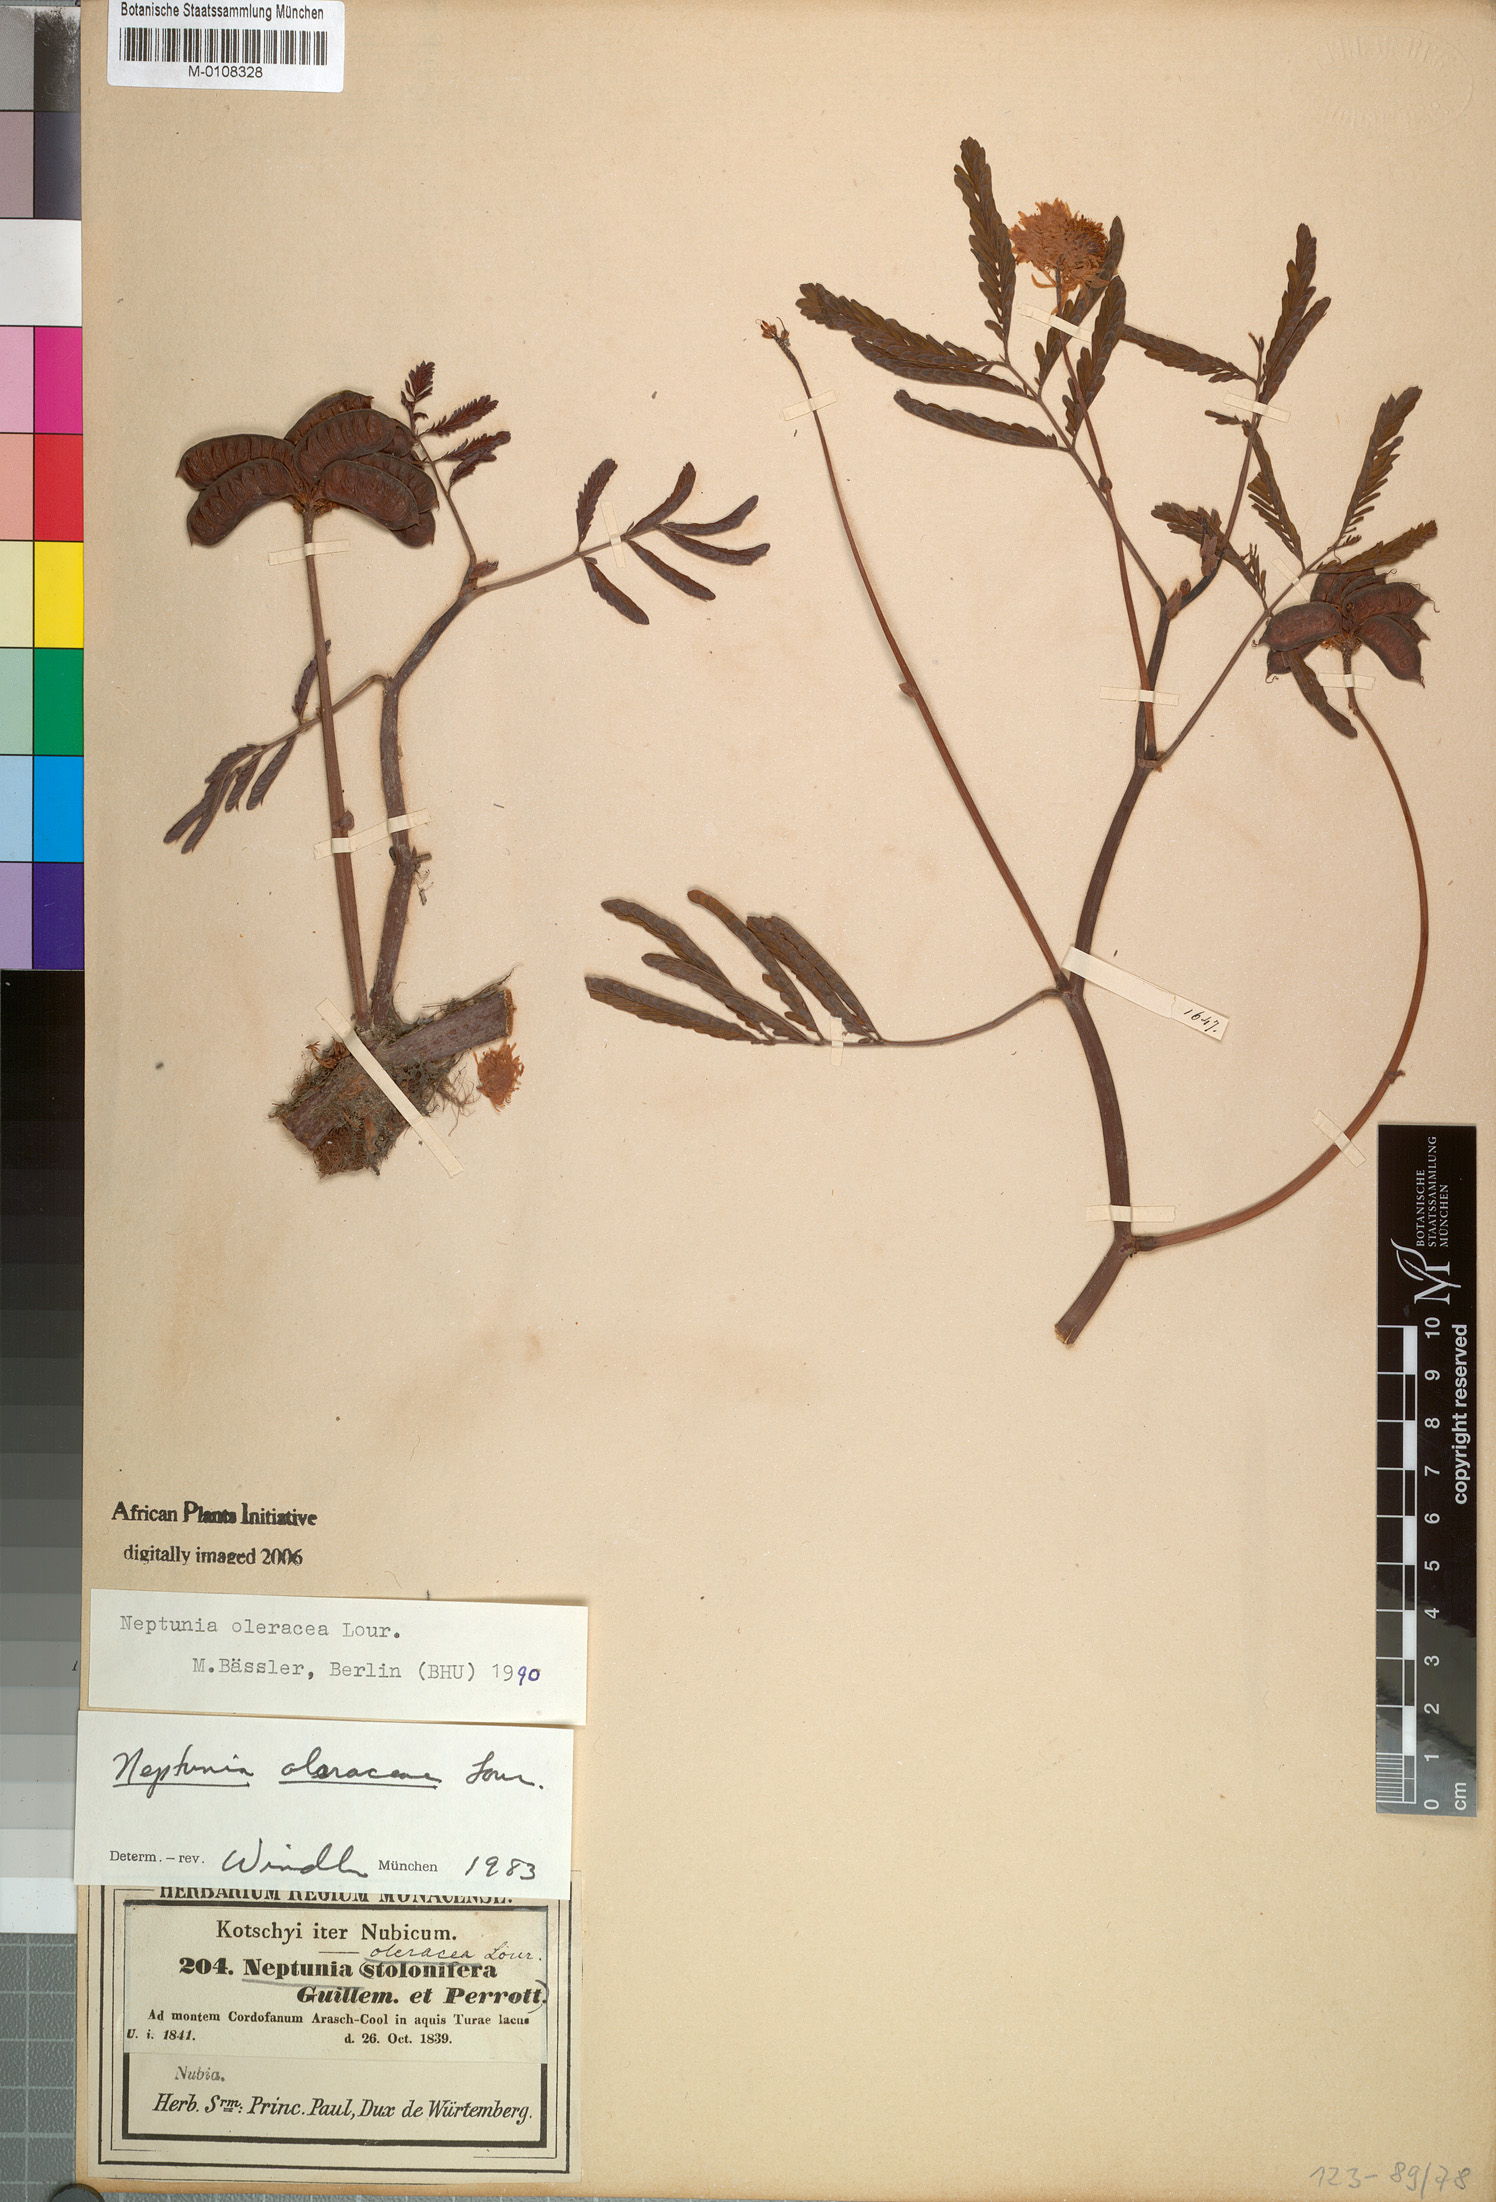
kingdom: Plantae
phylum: Tracheophyta
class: Magnoliopsida
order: Fabales
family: Fabaceae
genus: Neptunia
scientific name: Neptunia prostrata
